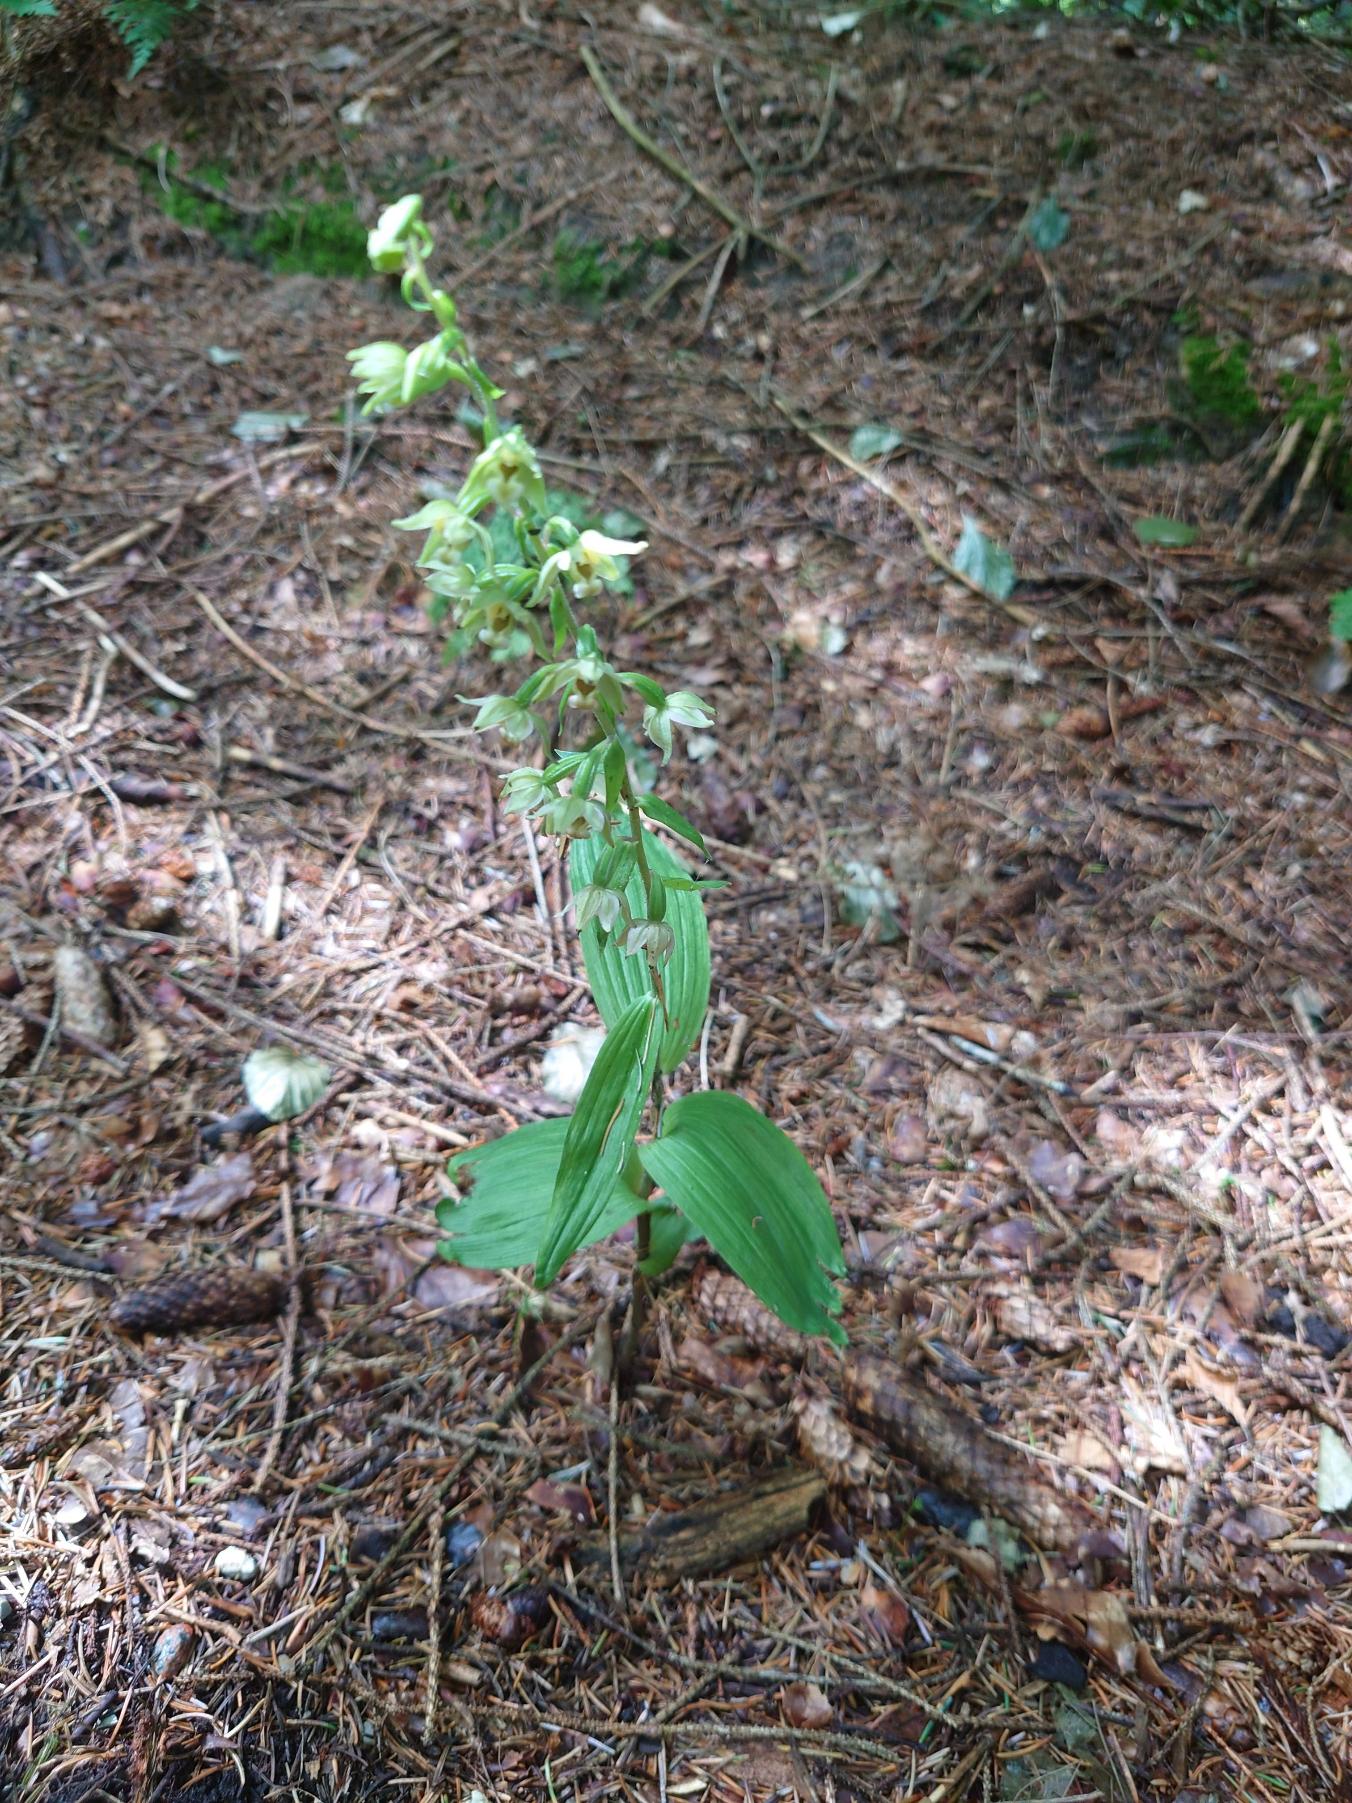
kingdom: Plantae
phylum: Tracheophyta
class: Liliopsida
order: Asparagales
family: Orchidaceae
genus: Epipactis
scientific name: Epipactis helleborine
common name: Skov-hullæbe
